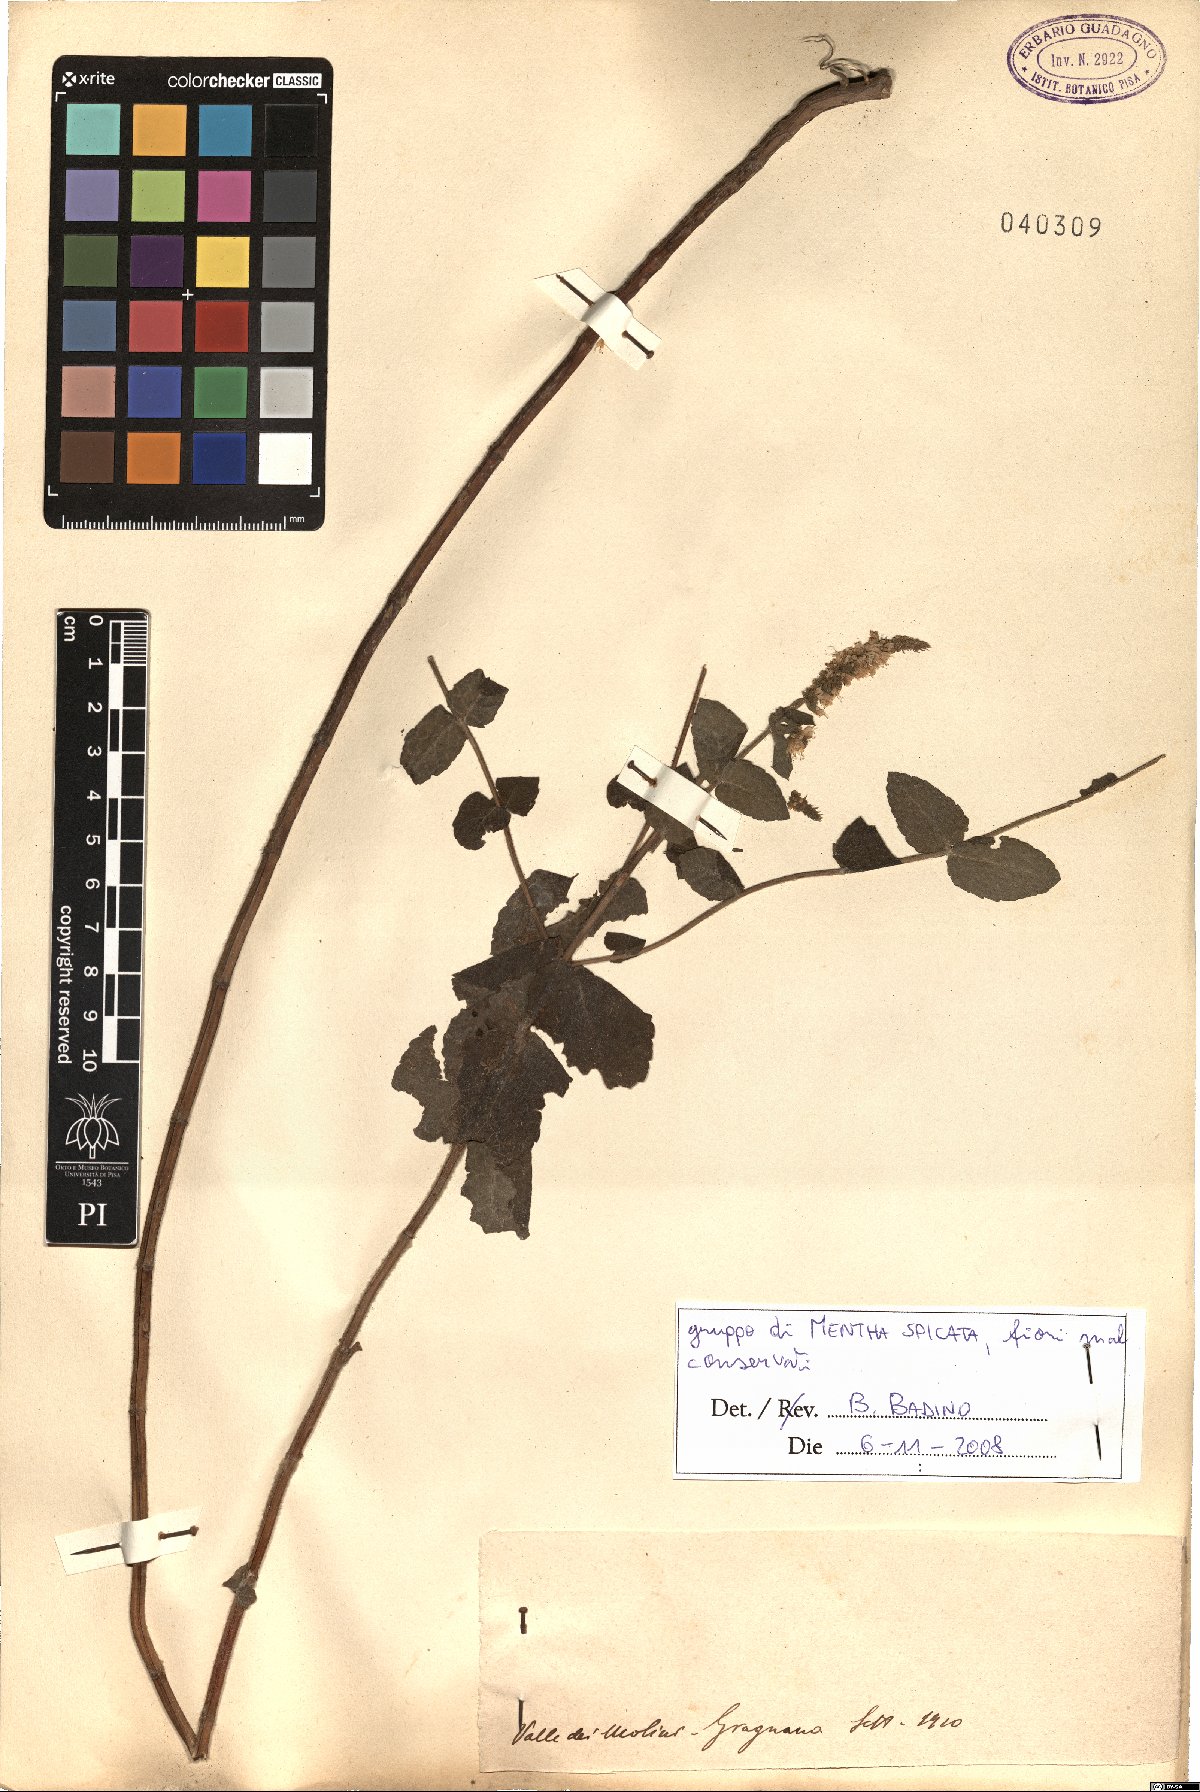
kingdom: Plantae
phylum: Tracheophyta
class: Magnoliopsida
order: Lamiales
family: Lamiaceae
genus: Mentha
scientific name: Mentha spicata
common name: Spearmint
